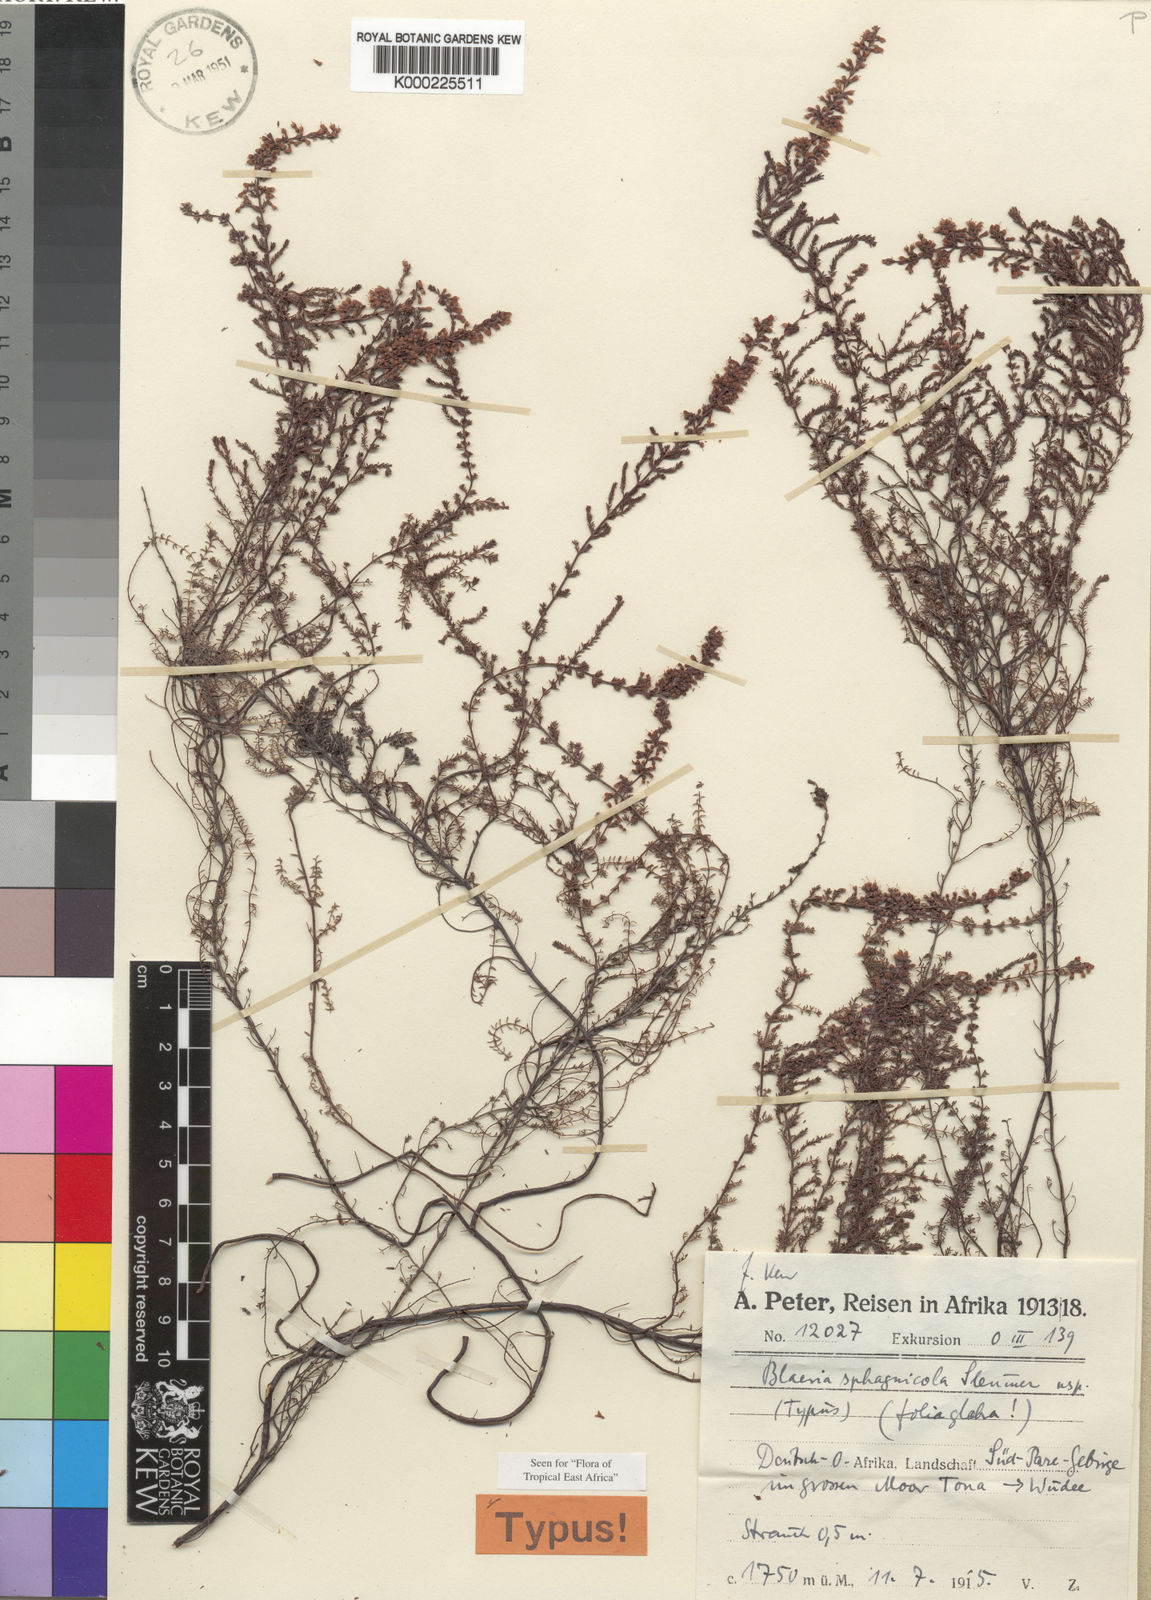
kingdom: Plantae
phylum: Tracheophyta
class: Magnoliopsida
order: Ericales
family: Ericaceae
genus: Erica
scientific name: Erica silvatica
